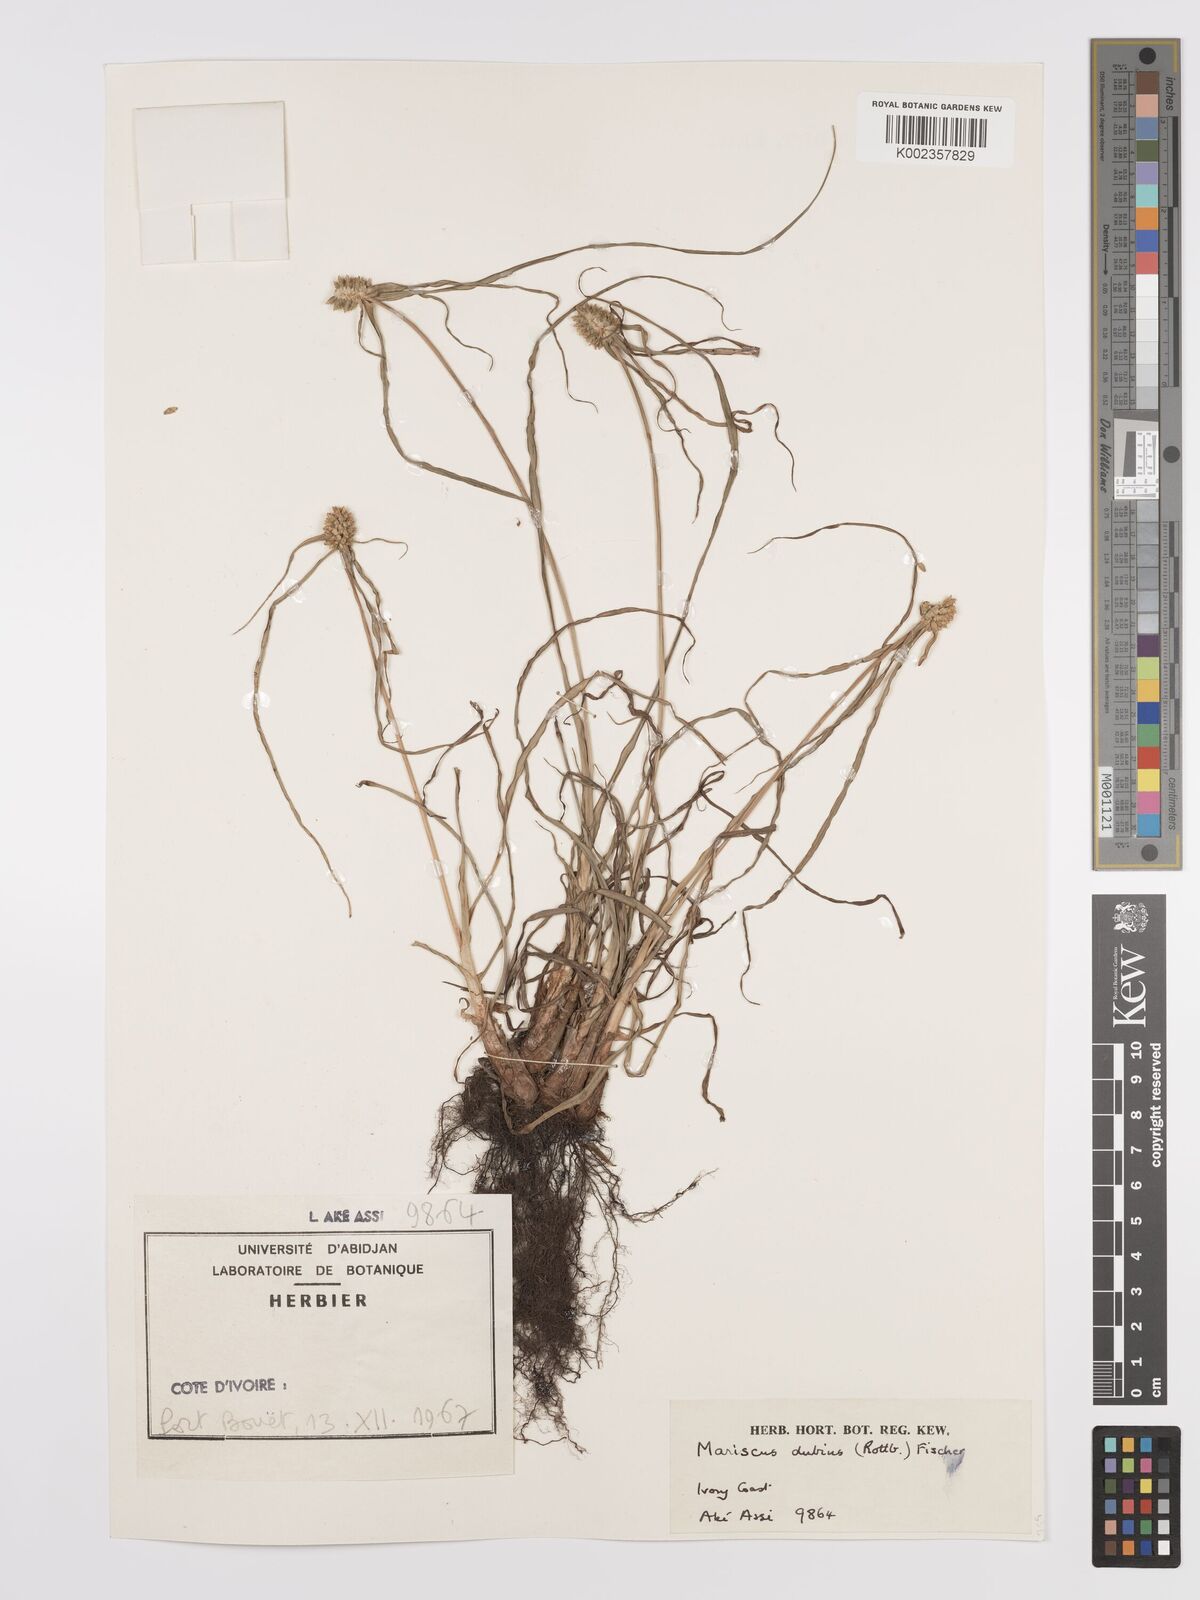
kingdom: Plantae
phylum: Tracheophyta
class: Liliopsida
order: Poales
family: Cyperaceae
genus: Cyperus
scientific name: Cyperus dubius
